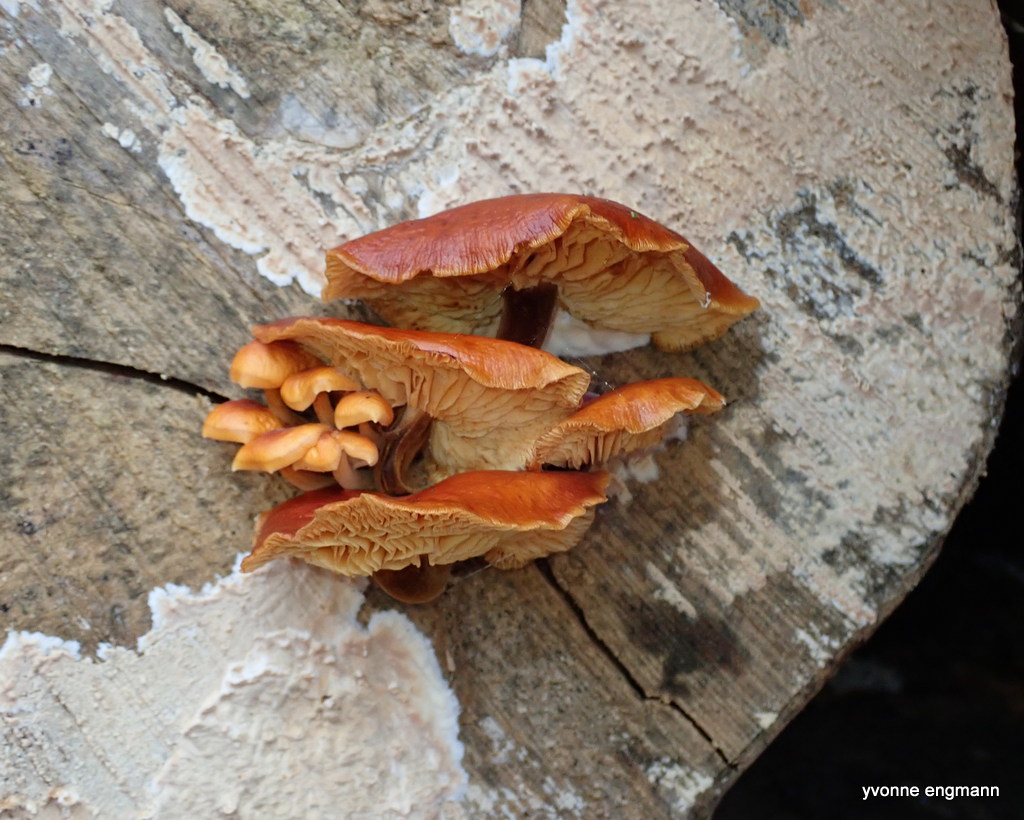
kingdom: Fungi
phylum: Basidiomycota
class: Agaricomycetes
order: Agaricales
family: Physalacriaceae
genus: Flammulina
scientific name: Flammulina velutipes
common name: gul fløjlsfod
